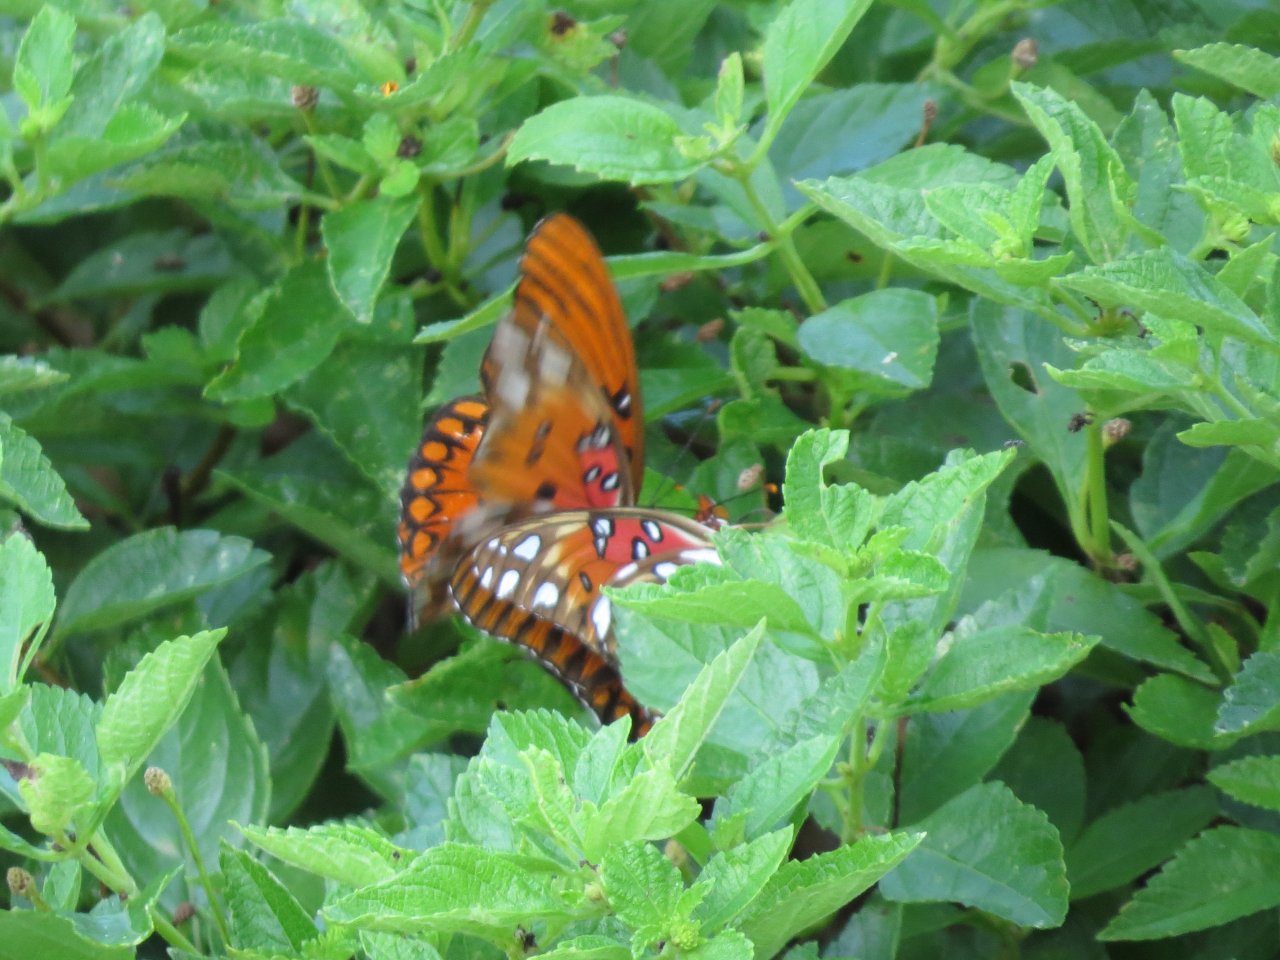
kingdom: Animalia
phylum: Arthropoda
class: Insecta
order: Lepidoptera
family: Nymphalidae
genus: Dione
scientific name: Dione vanillae
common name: Gulf Fritillary
